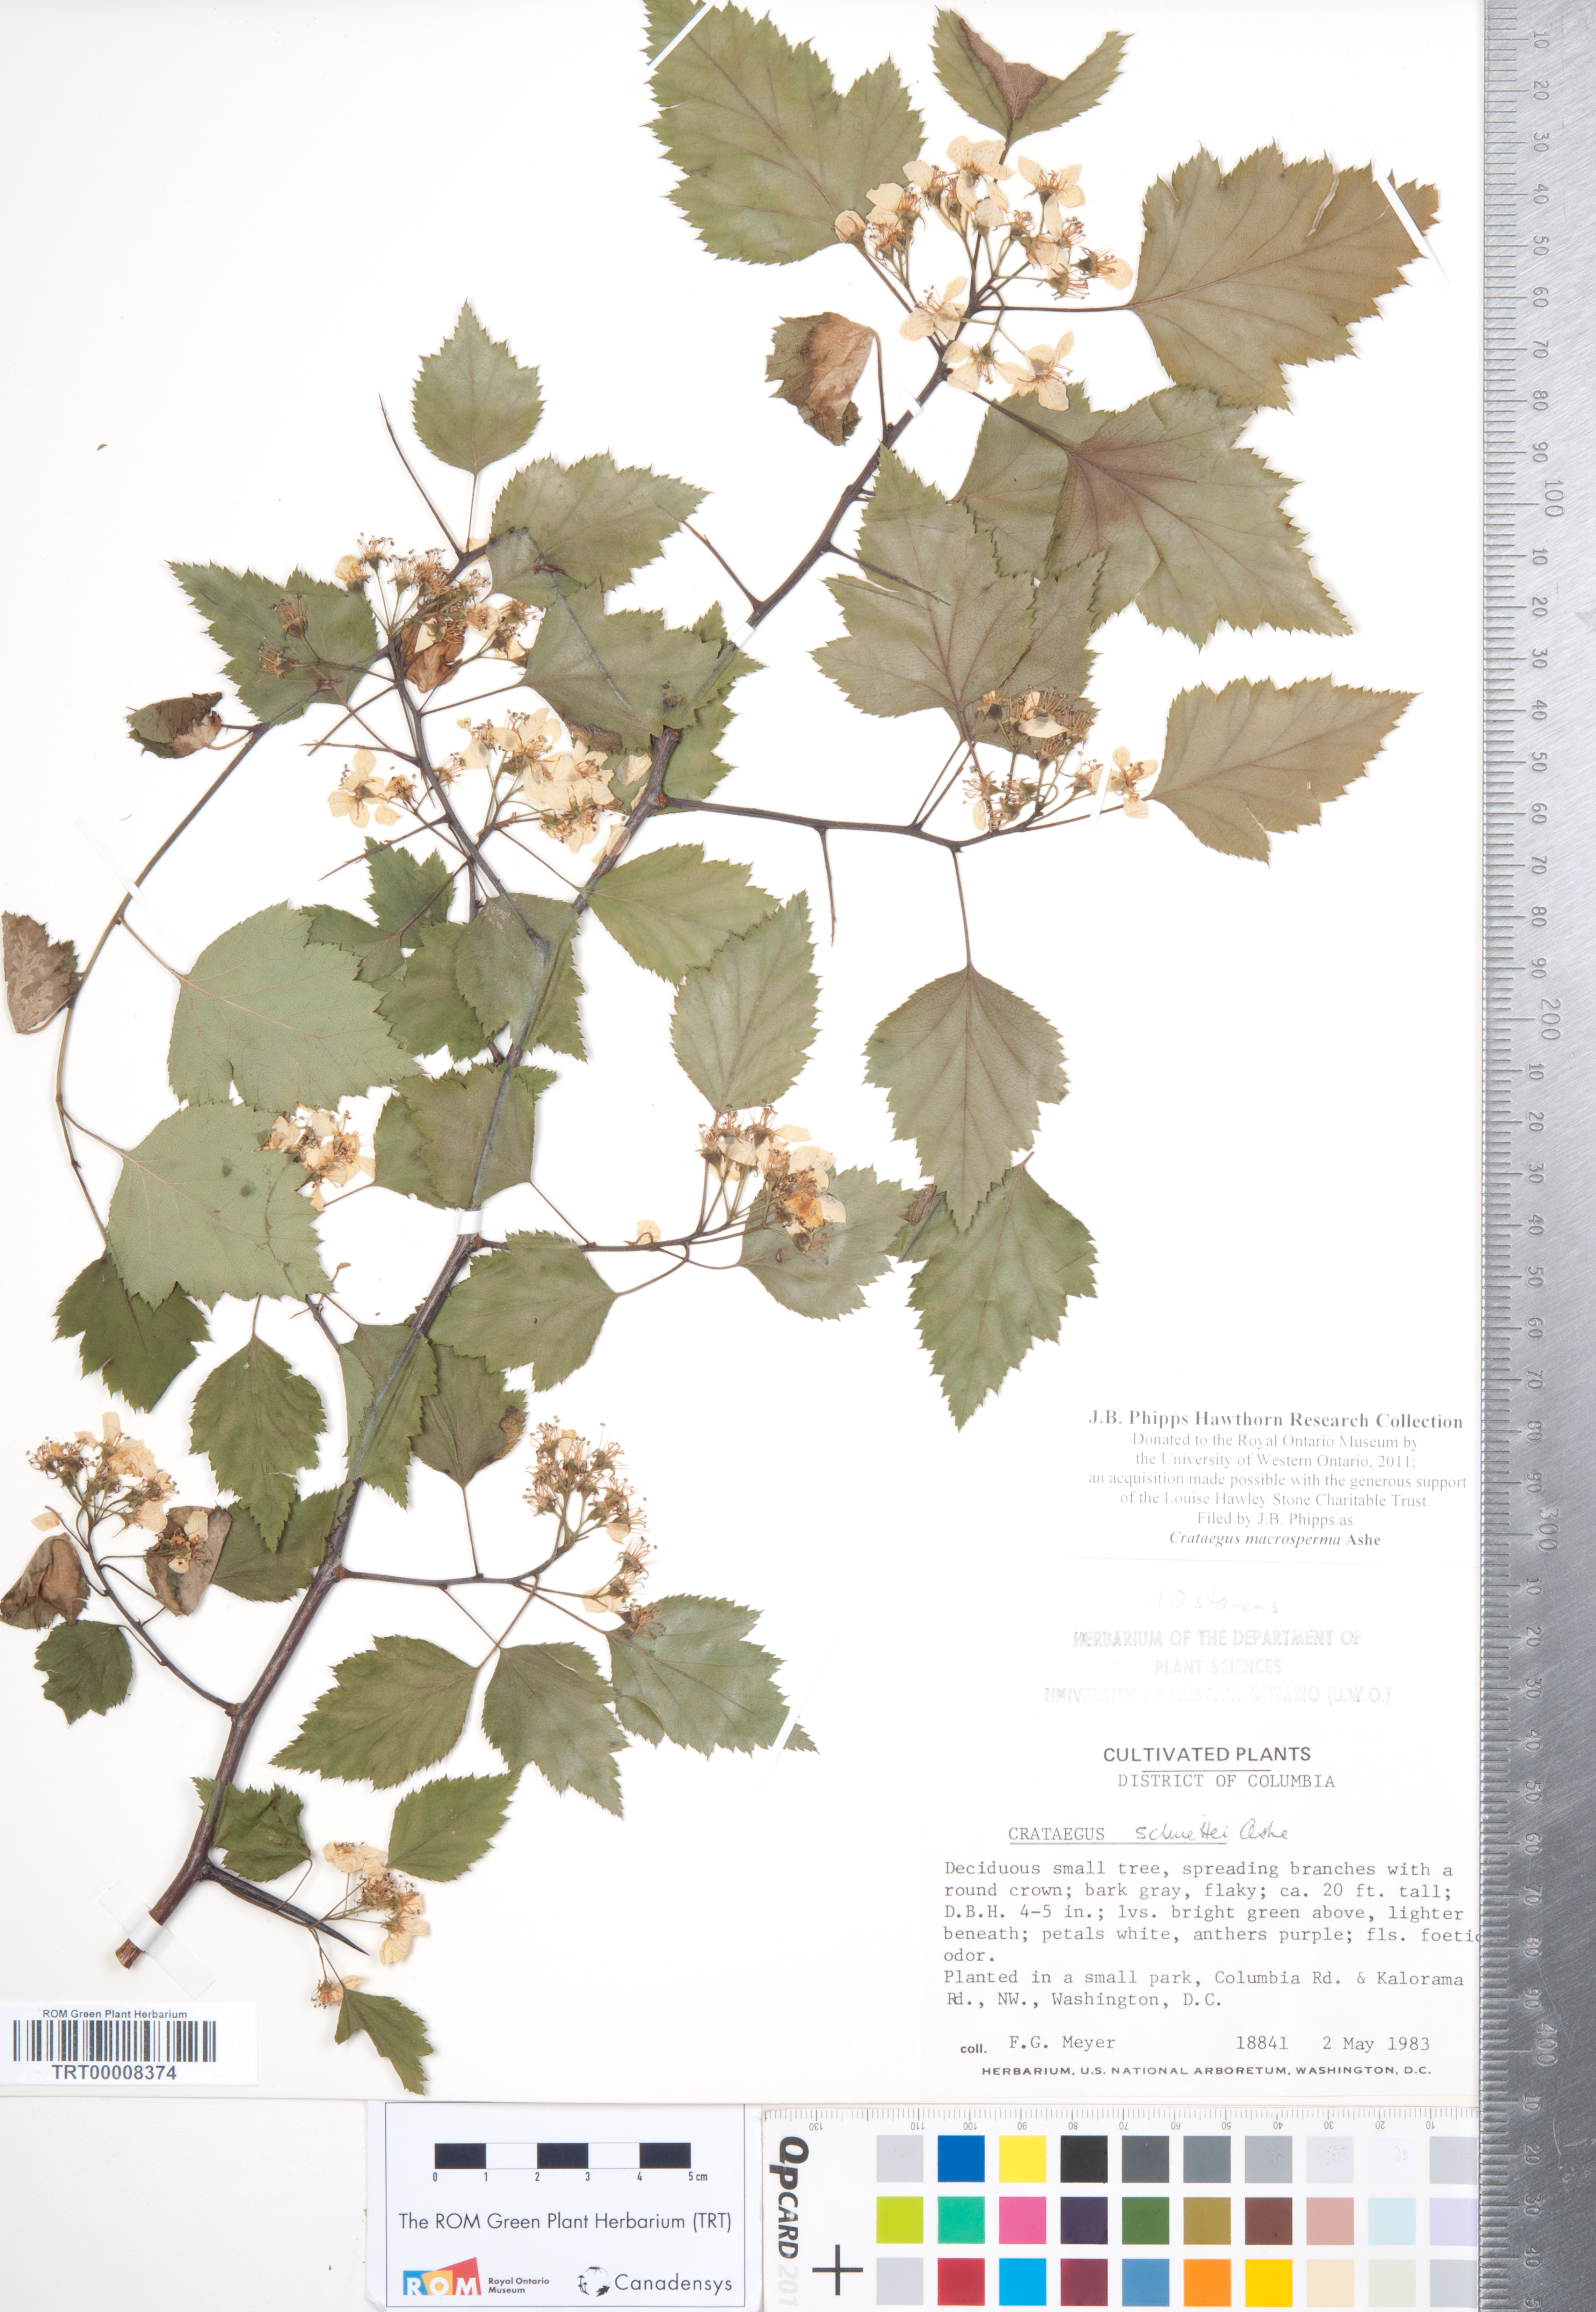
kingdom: Plantae
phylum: Tracheophyta
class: Magnoliopsida
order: Rosales
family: Rosaceae
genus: Crataegus
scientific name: Crataegus macrosperma
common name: Variable hawthorn
